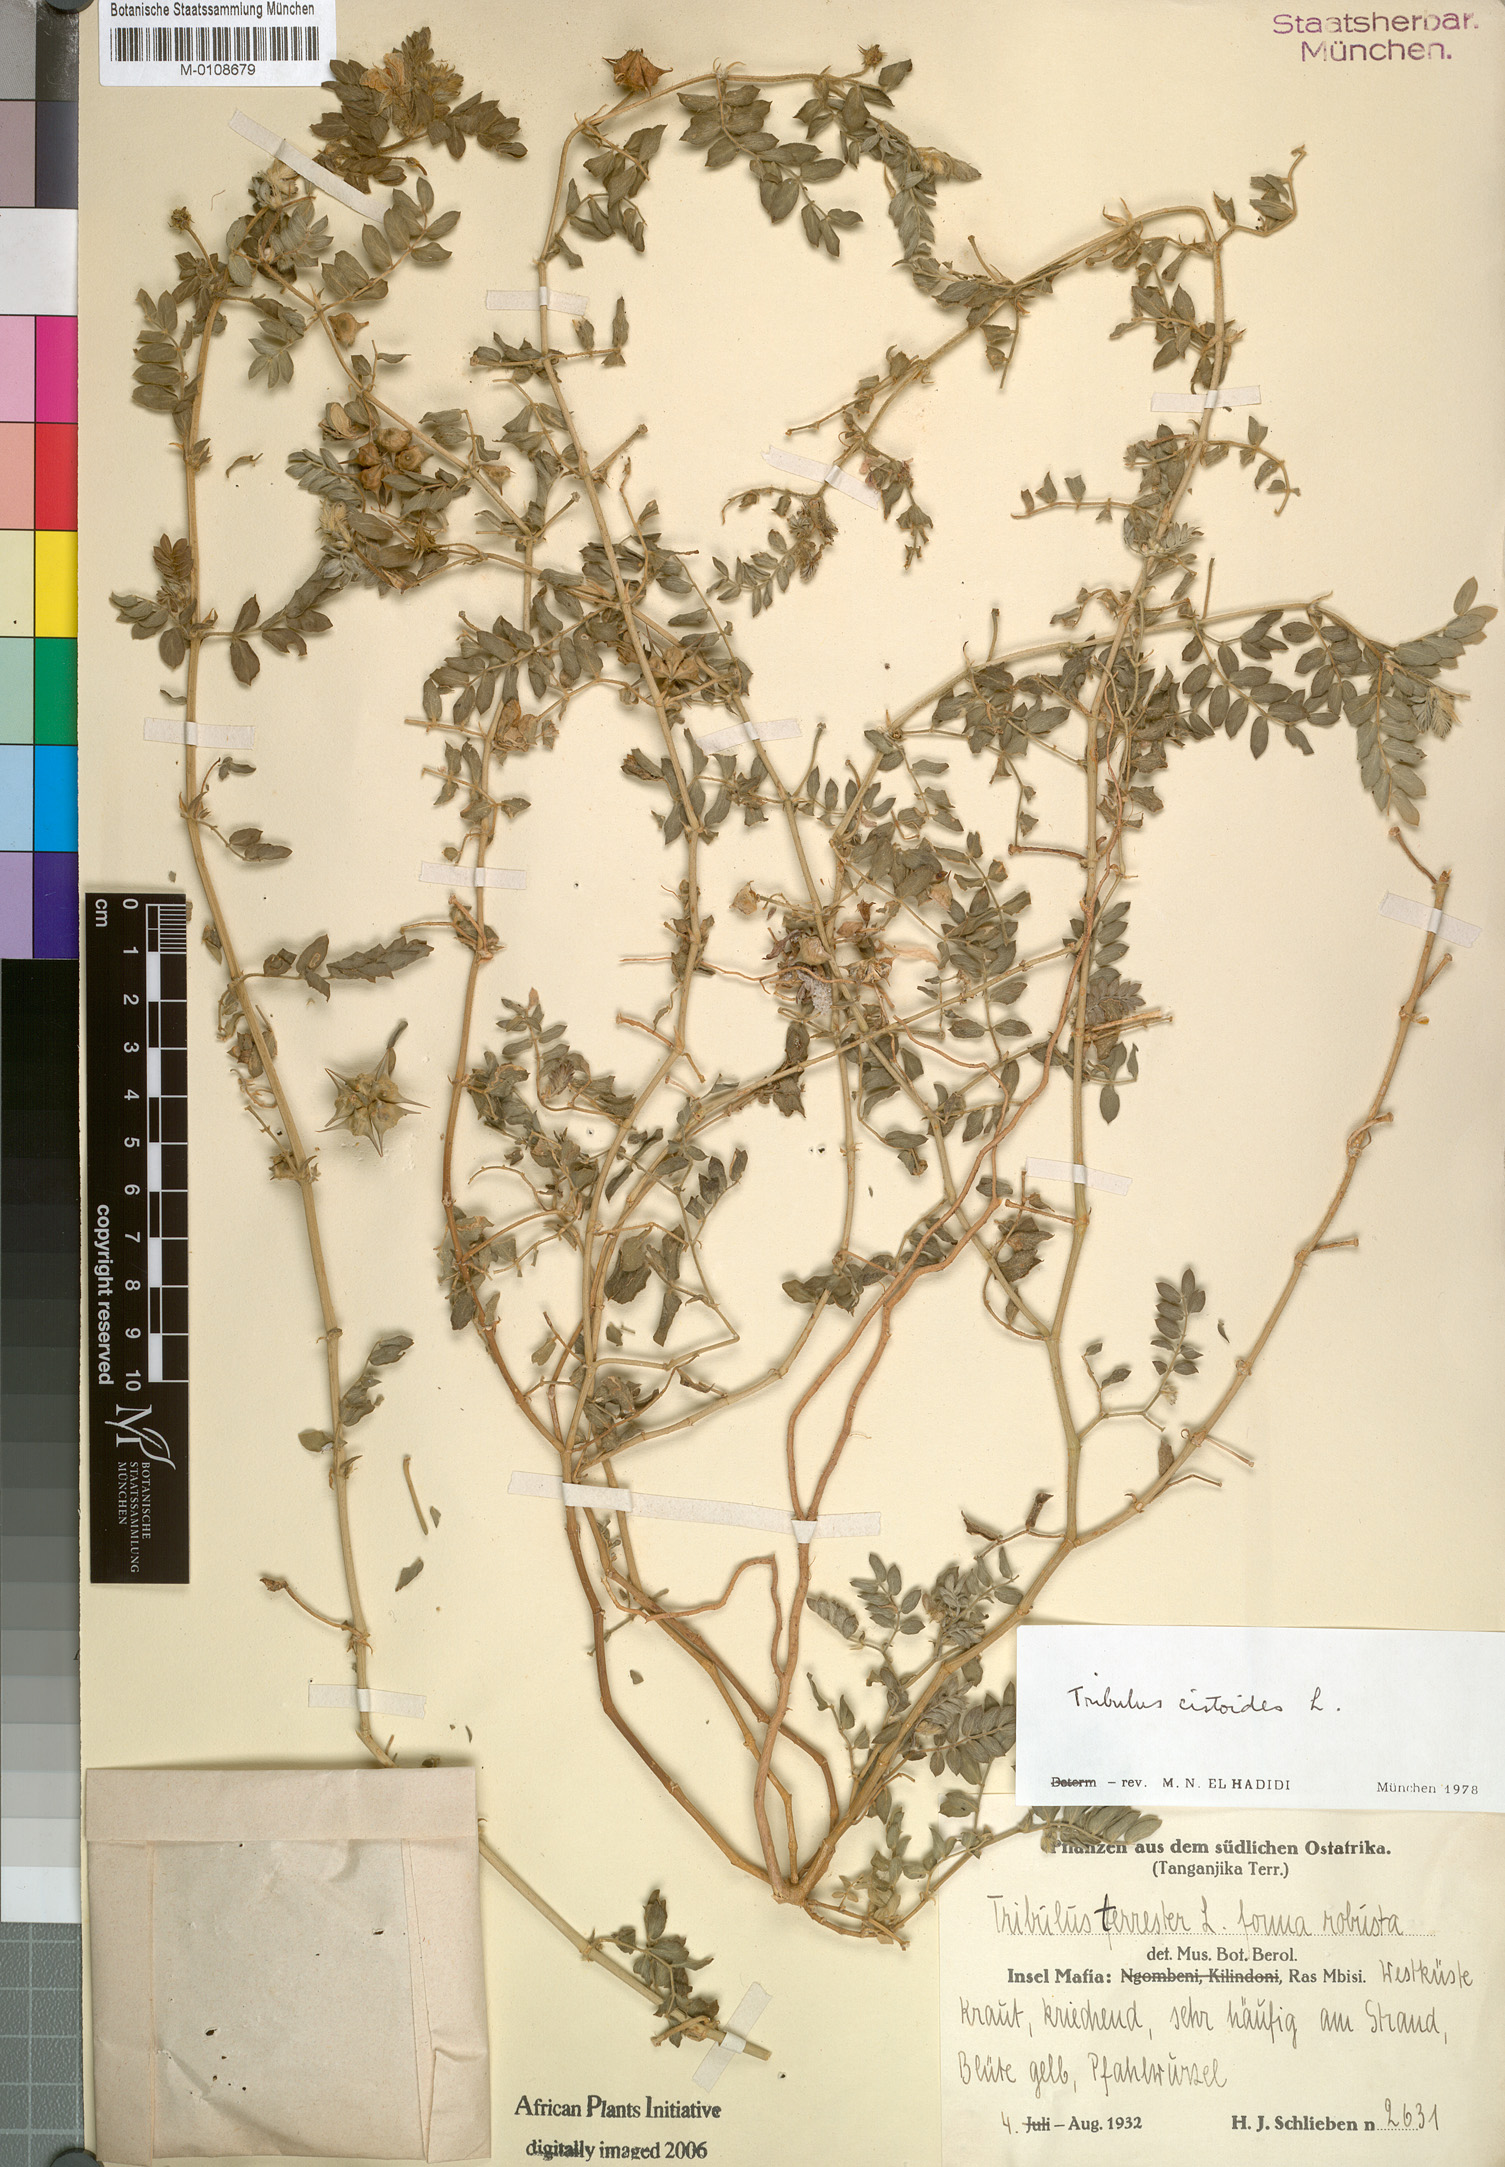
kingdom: Plantae
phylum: Tracheophyta
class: Magnoliopsida
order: Zygophyllales
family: Zygophyllaceae
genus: Tribulus
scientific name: Tribulus cistoides
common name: Jamaican feverplant
